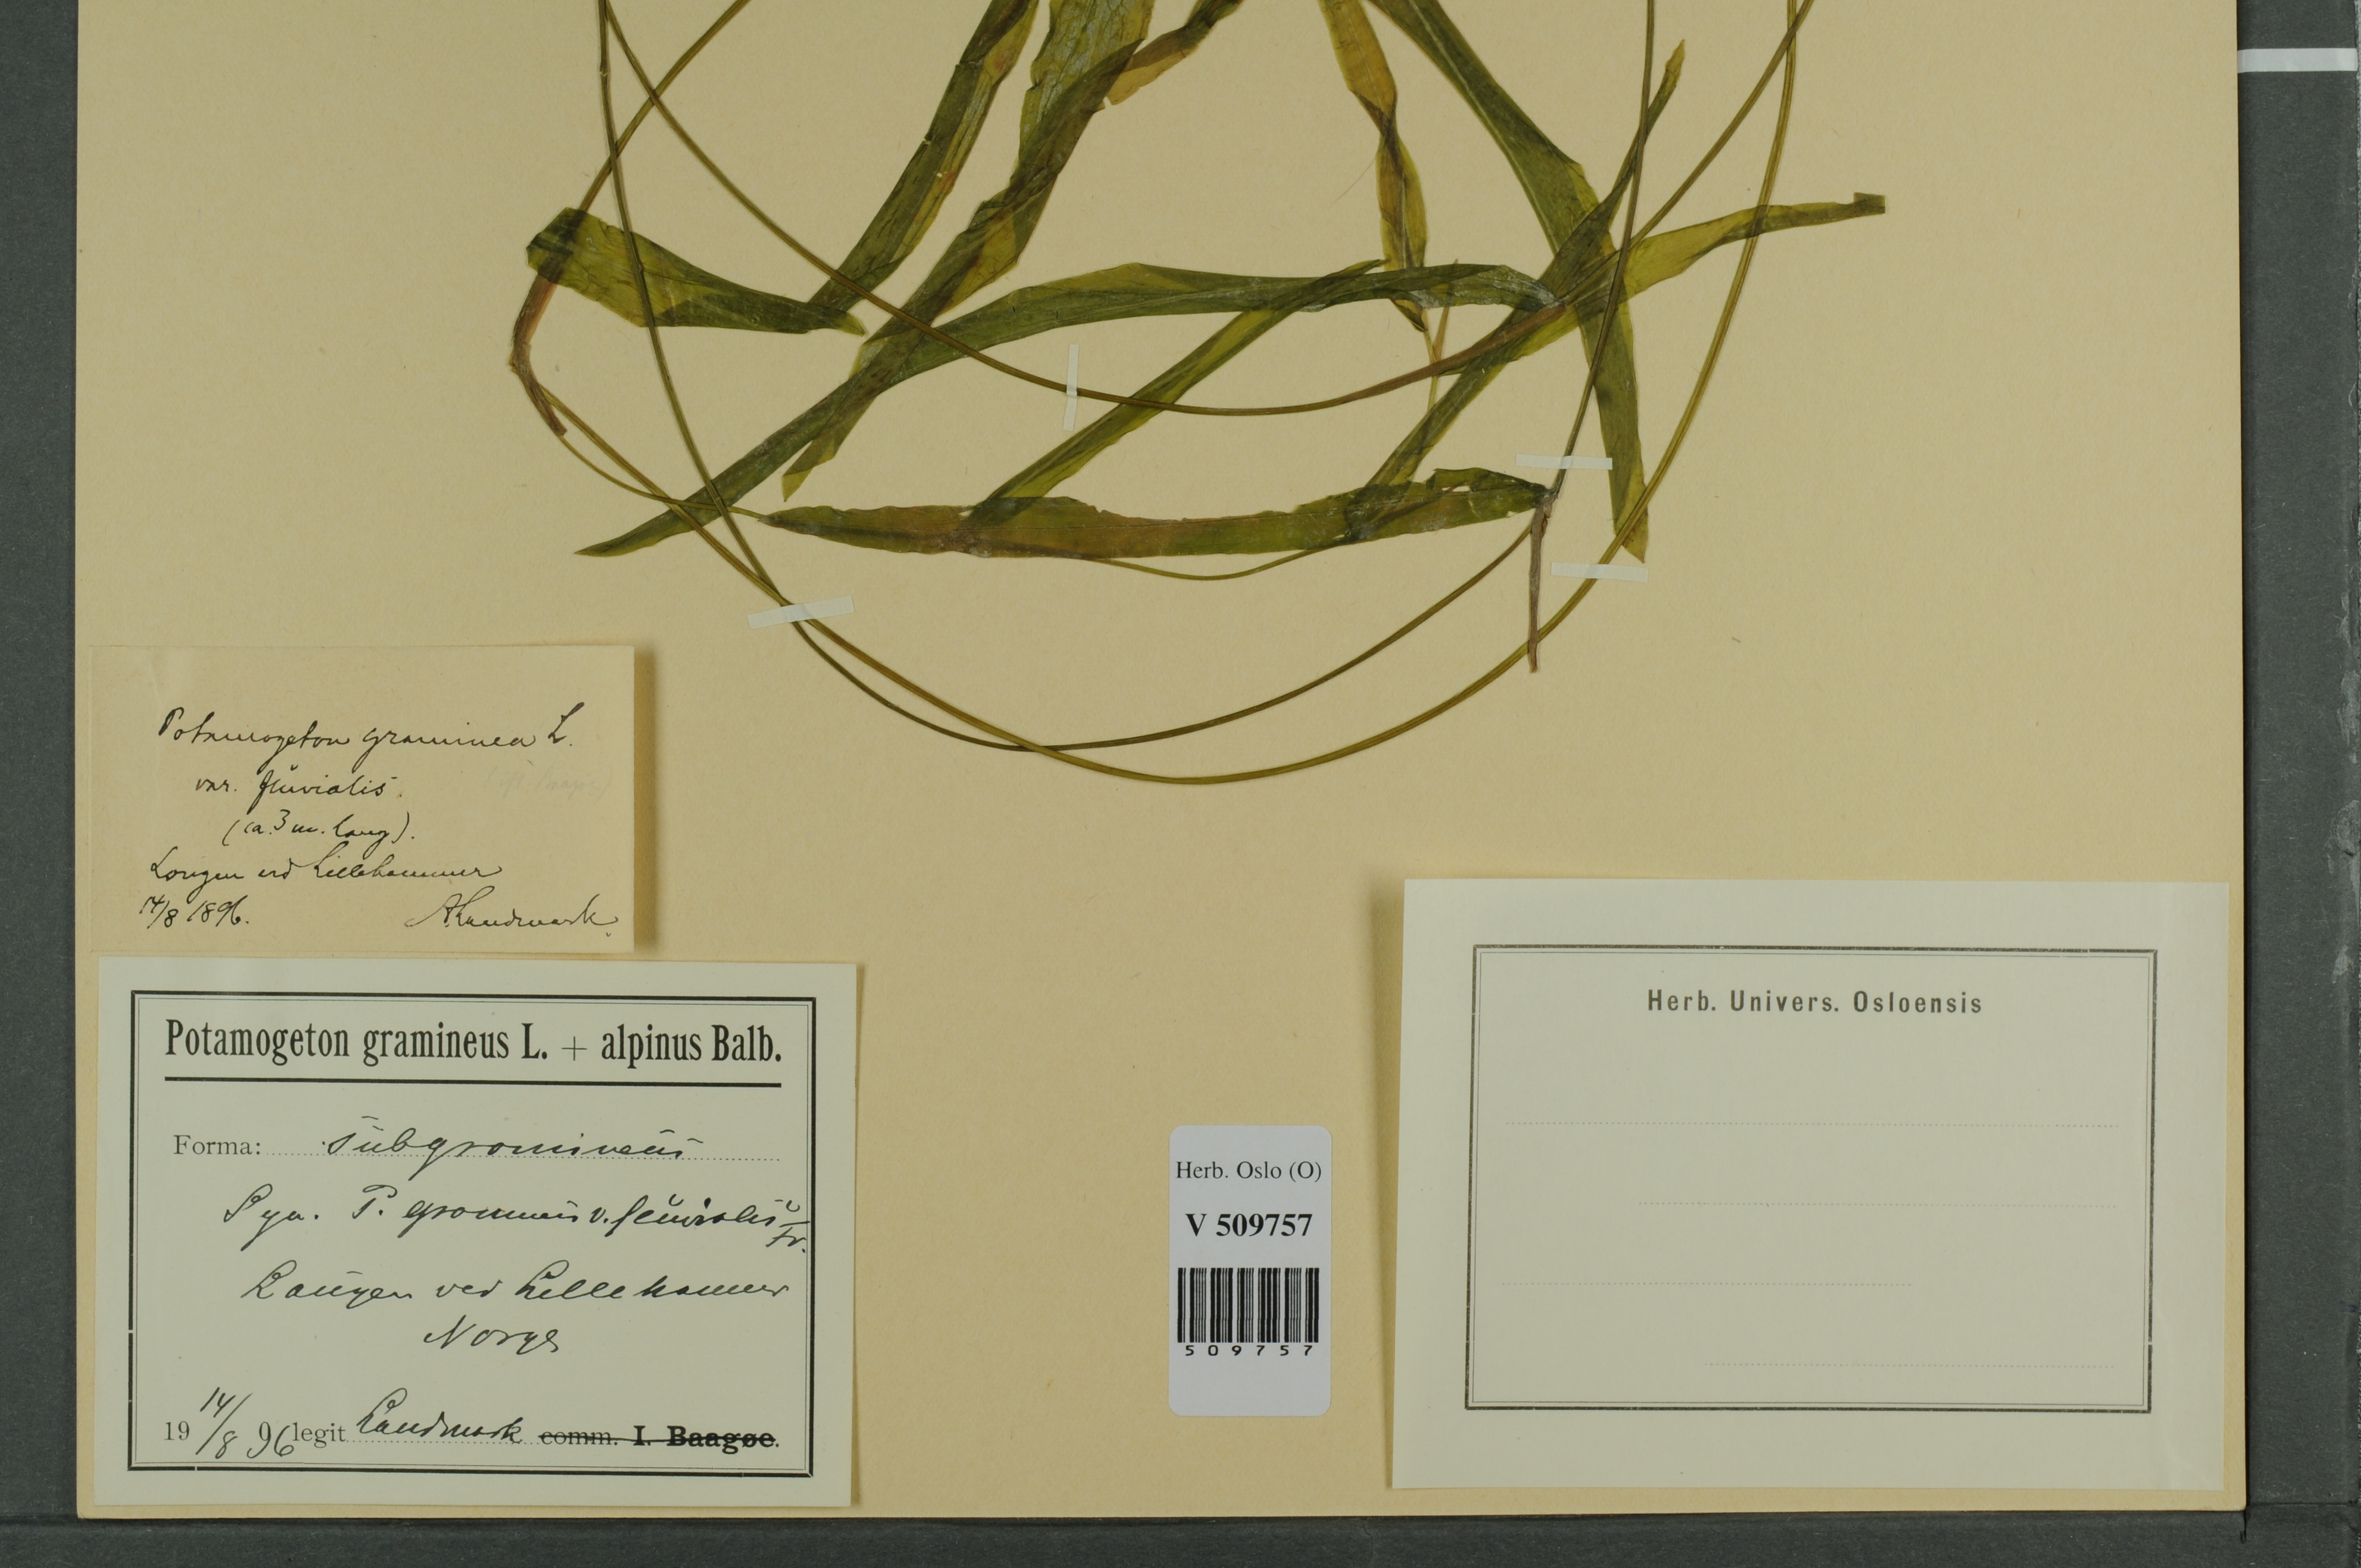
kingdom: Plantae
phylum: Tracheophyta
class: Liliopsida
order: Alismatales
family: Potamogetonaceae
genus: Potamogeton
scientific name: Potamogeton gramineus
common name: Various-leaved pondweed
